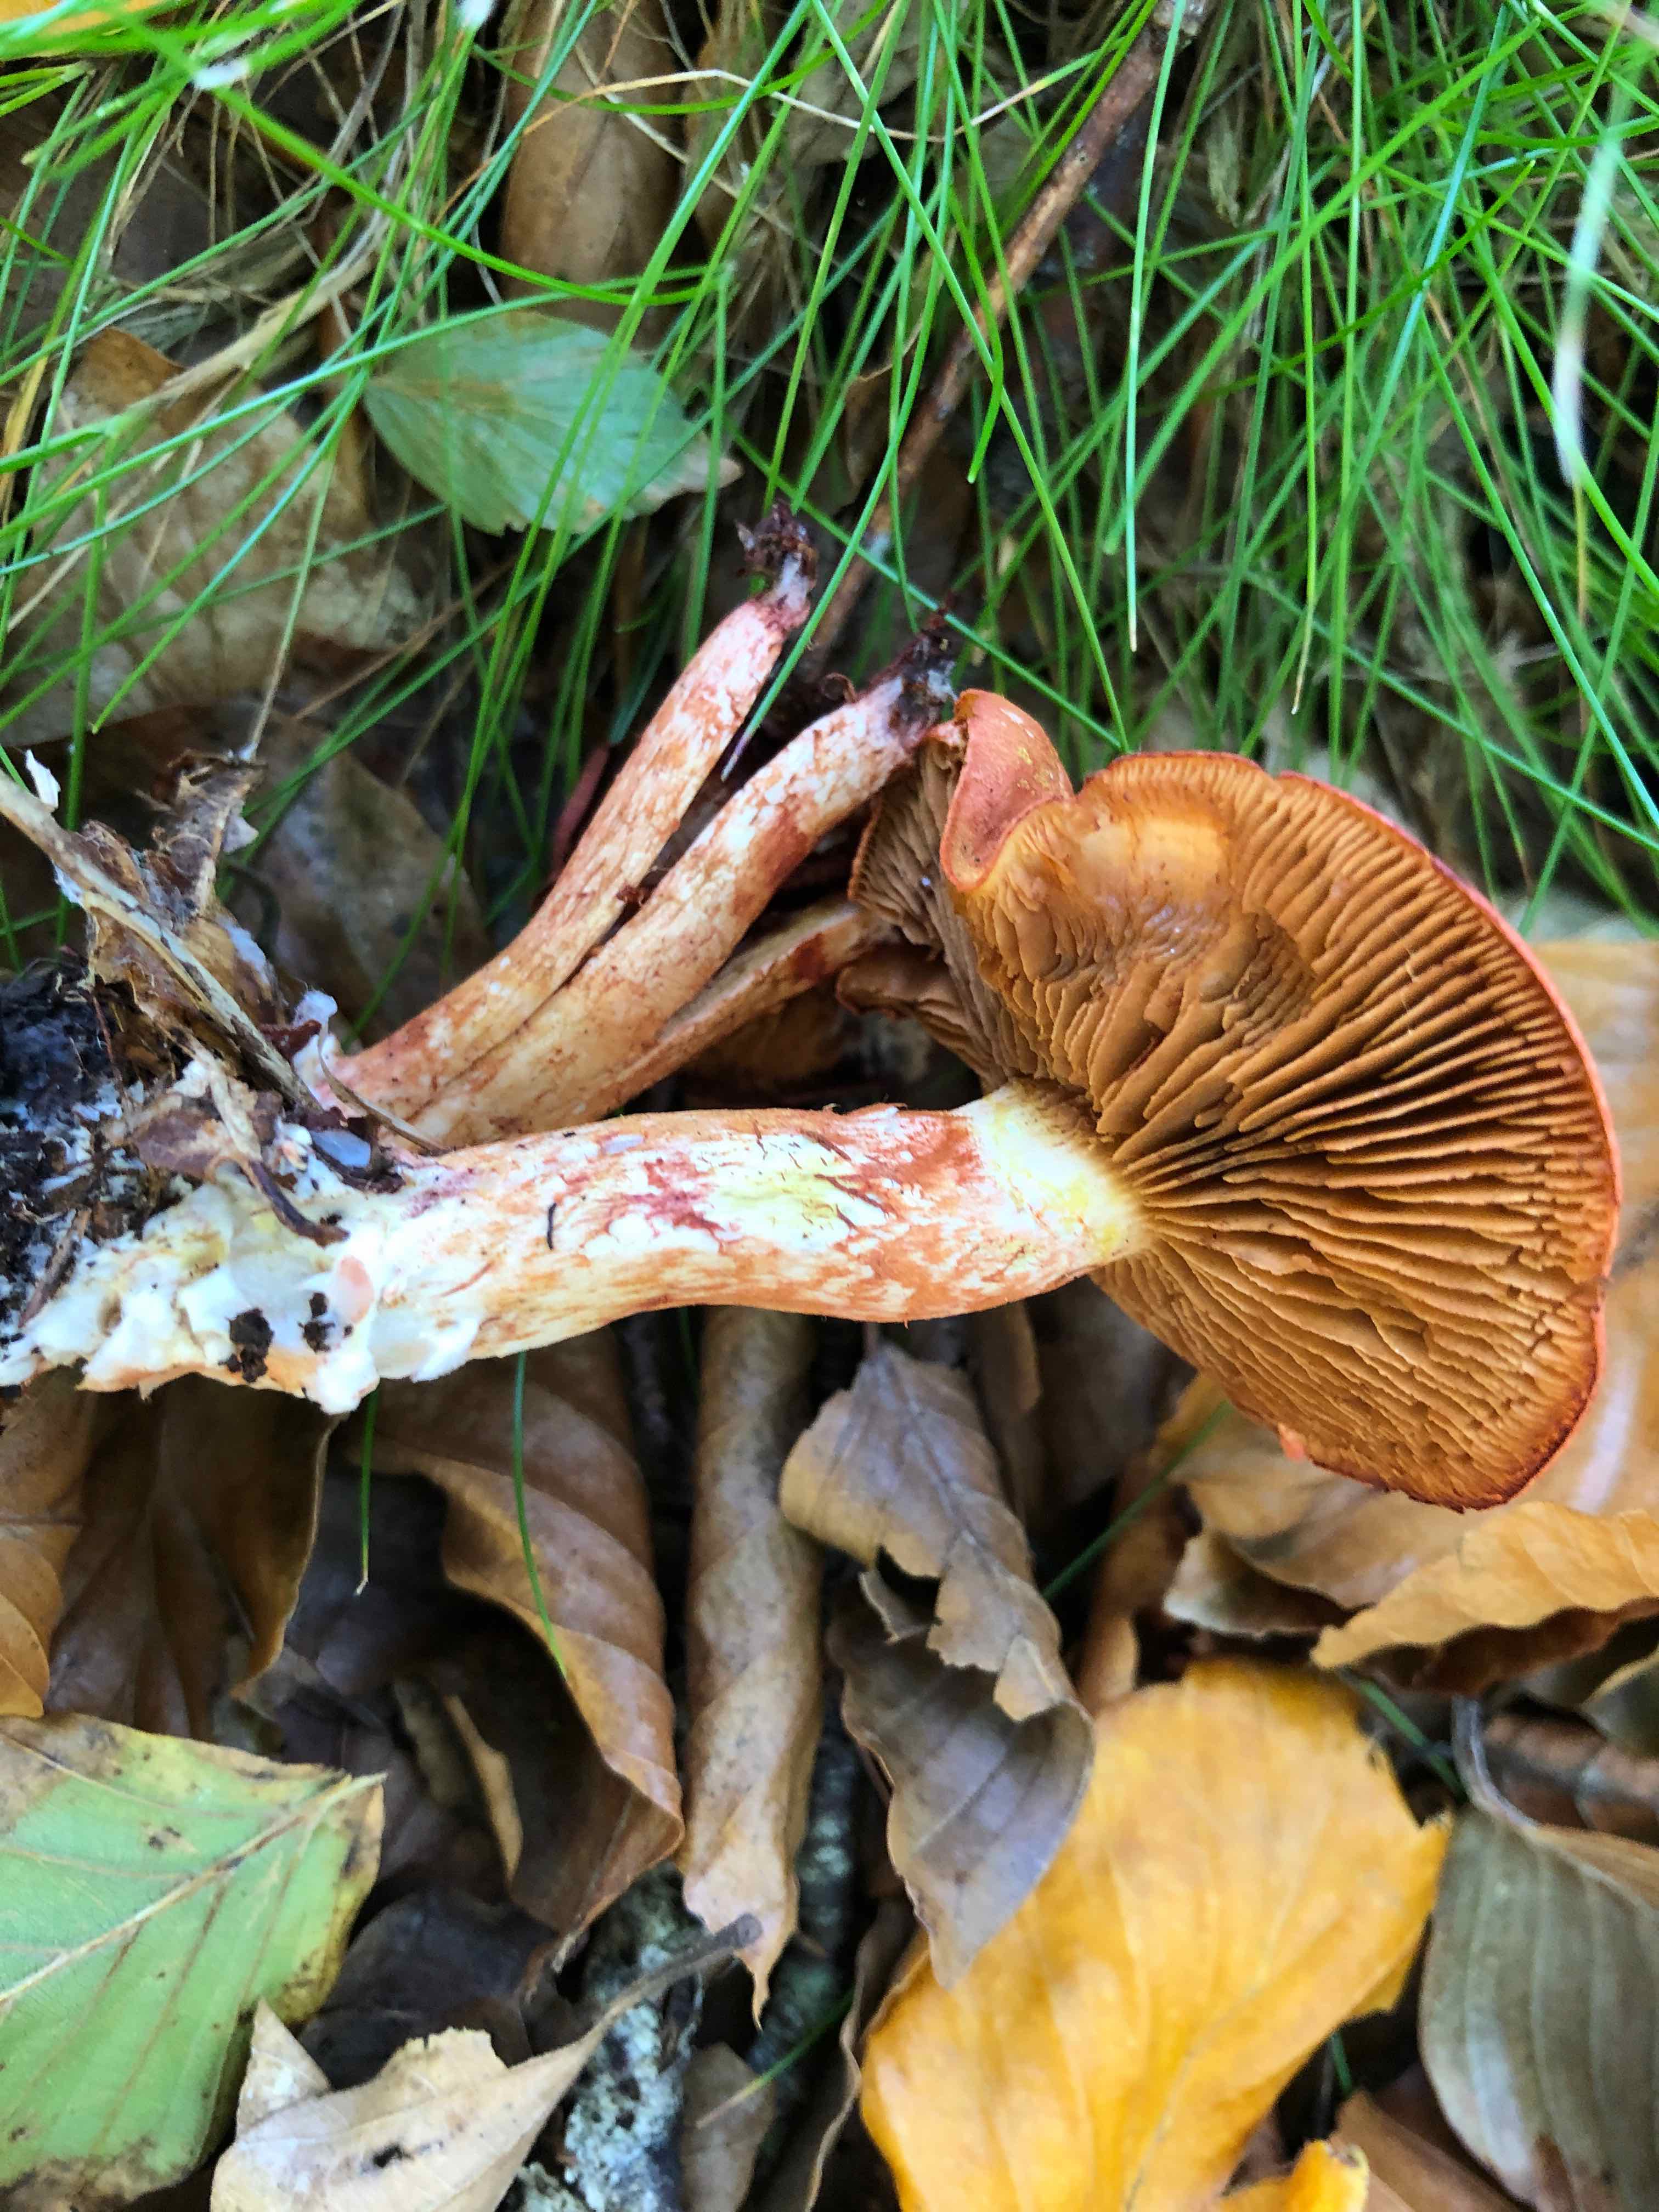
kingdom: Fungi
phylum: Basidiomycota
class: Agaricomycetes
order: Agaricales
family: Cortinariaceae
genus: Cortinarius
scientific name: Cortinarius bolaris
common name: cinnoberskællet slørhat
